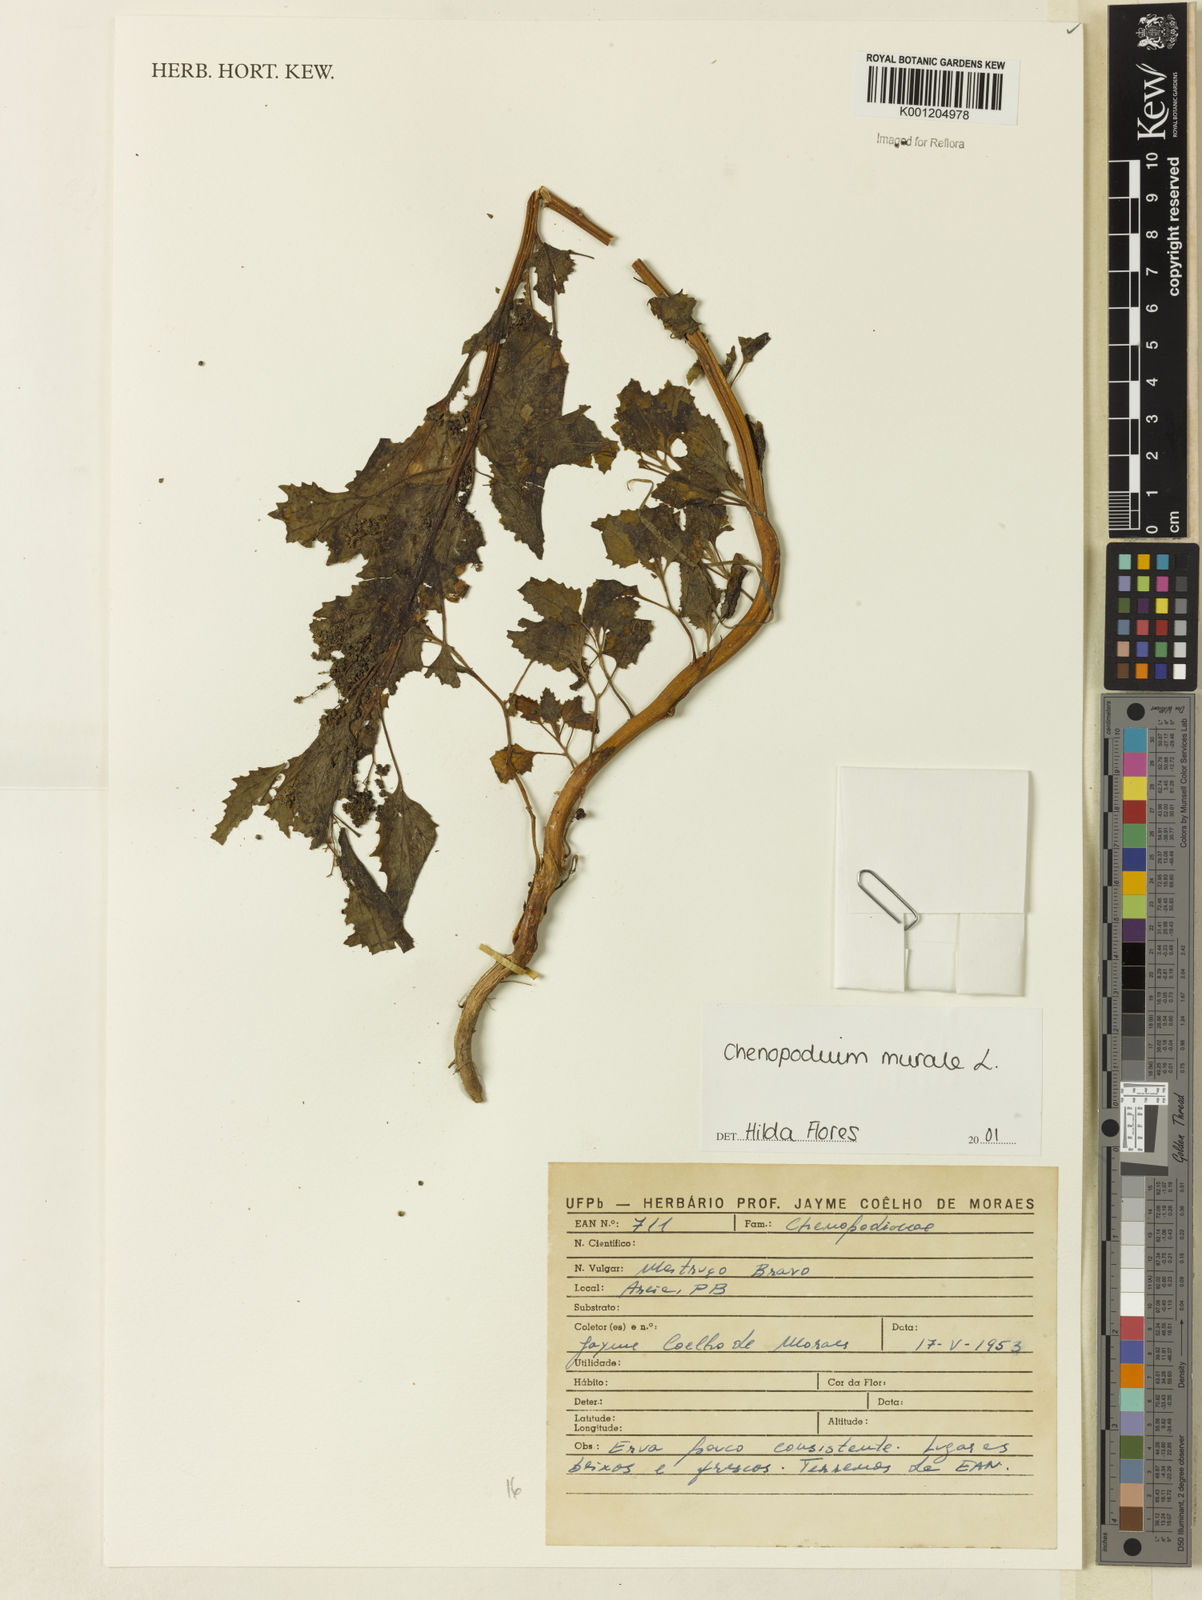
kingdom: Plantae
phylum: Tracheophyta
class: Magnoliopsida
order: Caryophyllales
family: Amaranthaceae
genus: Chenopodiastrum
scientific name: Chenopodiastrum murale
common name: Sowbane
